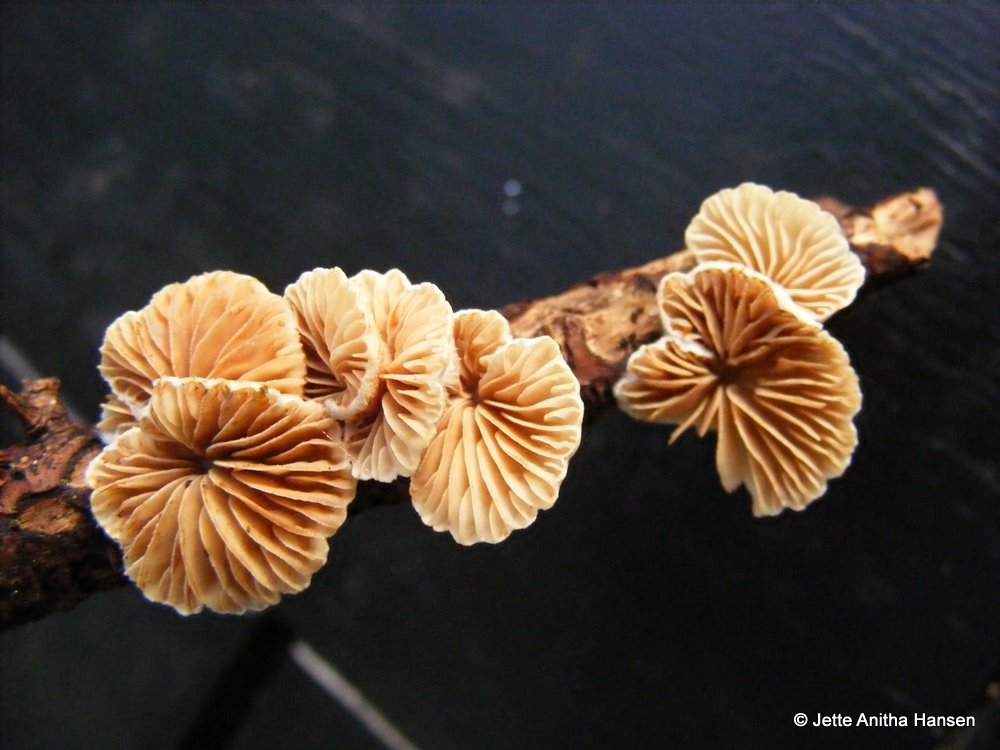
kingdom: Fungi
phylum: Basidiomycota
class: Agaricomycetes
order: Agaricales
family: Crepidotaceae
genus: Crepidotus
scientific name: Crepidotus cesatii
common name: almindelig muslingesvamp
